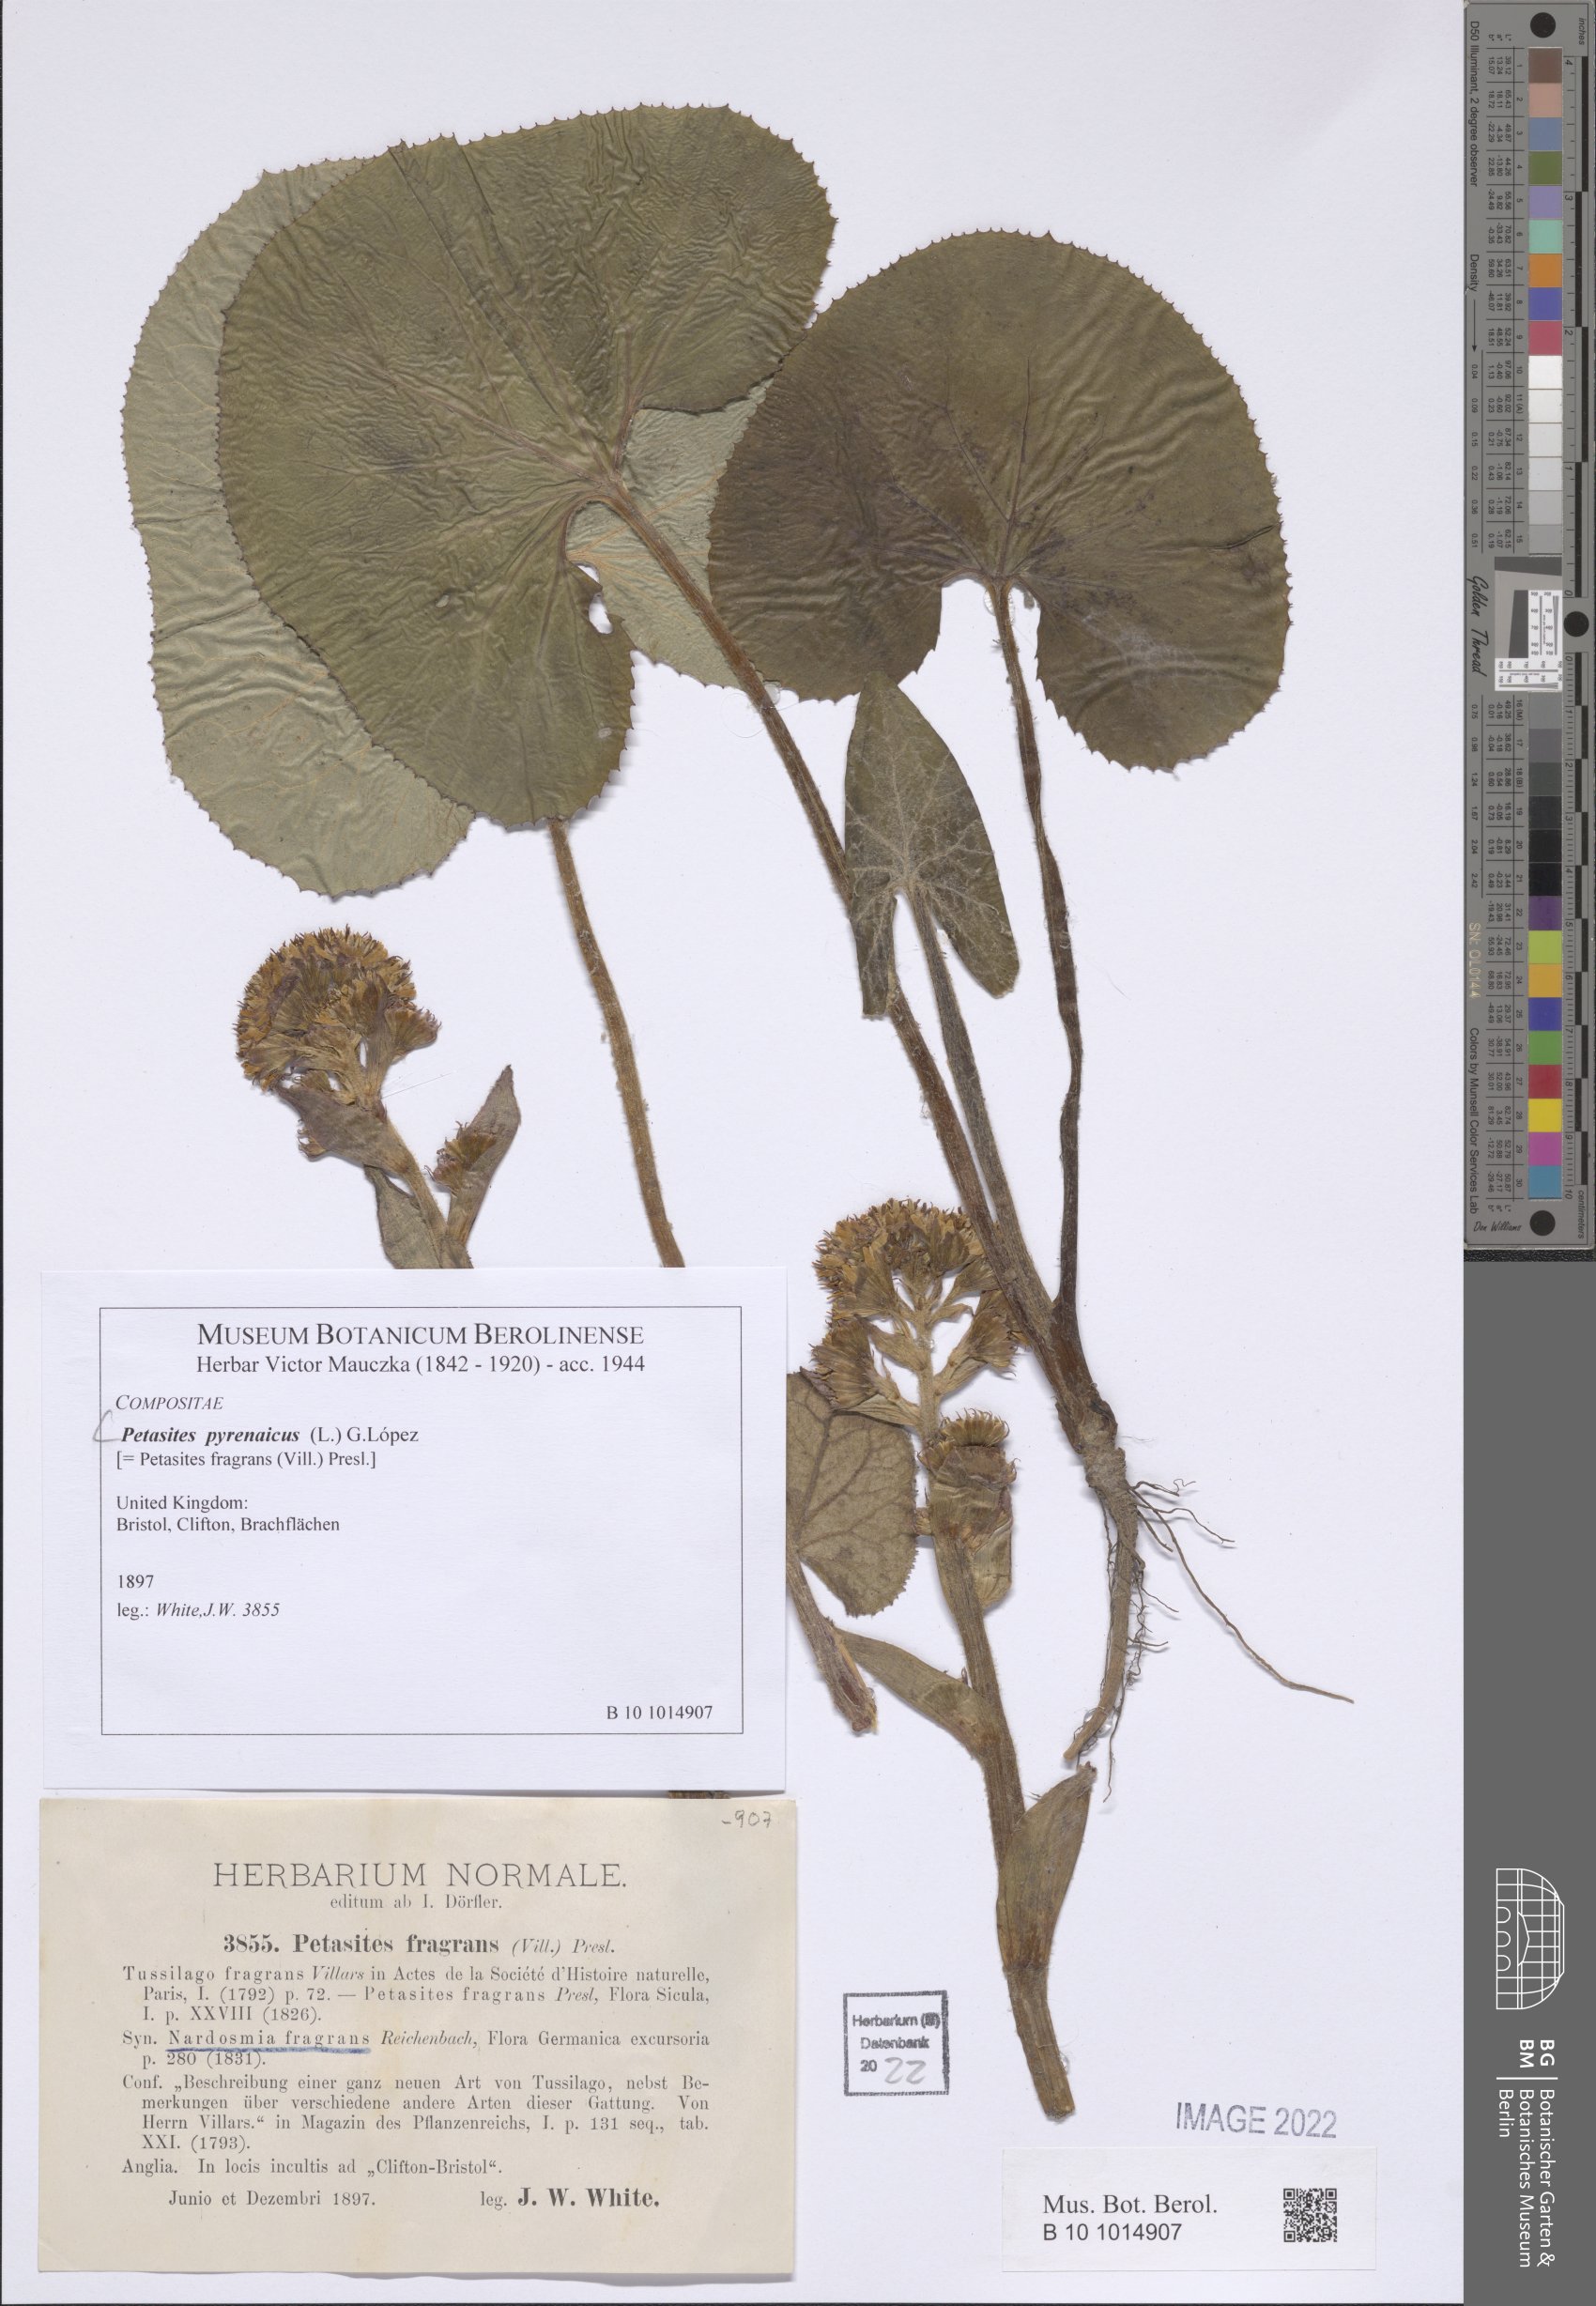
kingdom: Plantae
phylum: Tracheophyta
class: Magnoliopsida
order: Asterales
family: Asteraceae
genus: Petasites
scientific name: Petasites pyrenaicus
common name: Winter heliotrope
